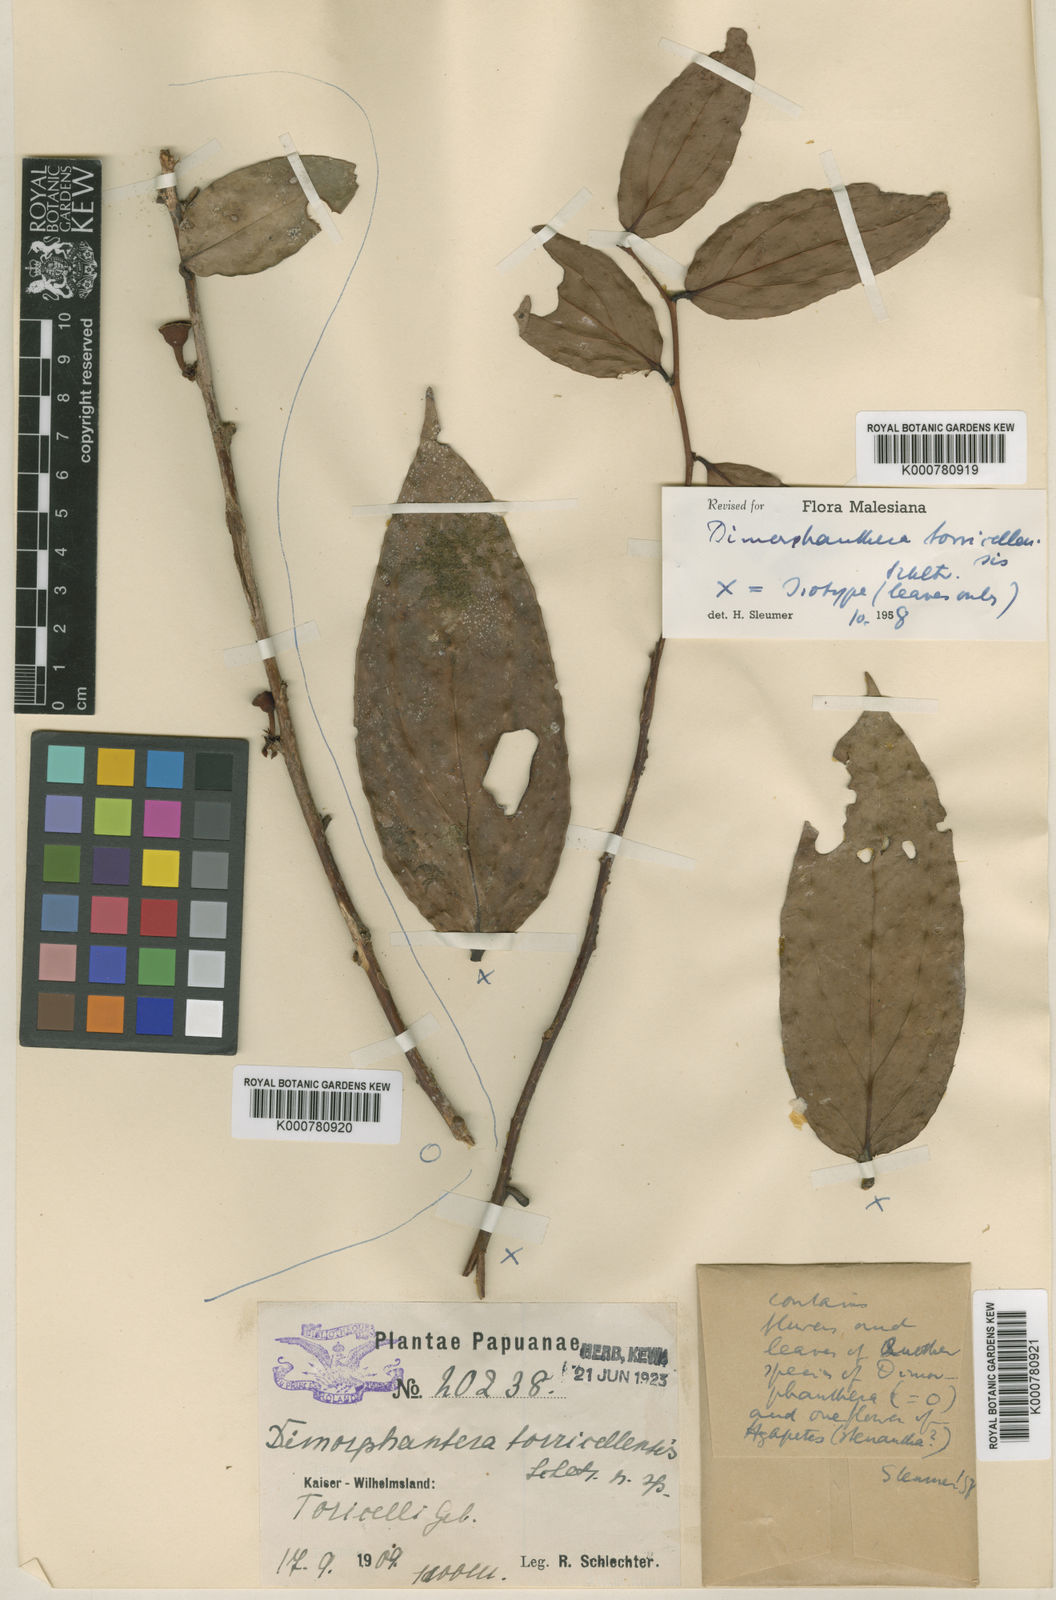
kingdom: Plantae
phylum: Tracheophyta
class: Magnoliopsida
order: Ericales
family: Ericaceae
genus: Dimorphanthera
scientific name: Dimorphanthera torricellensis
